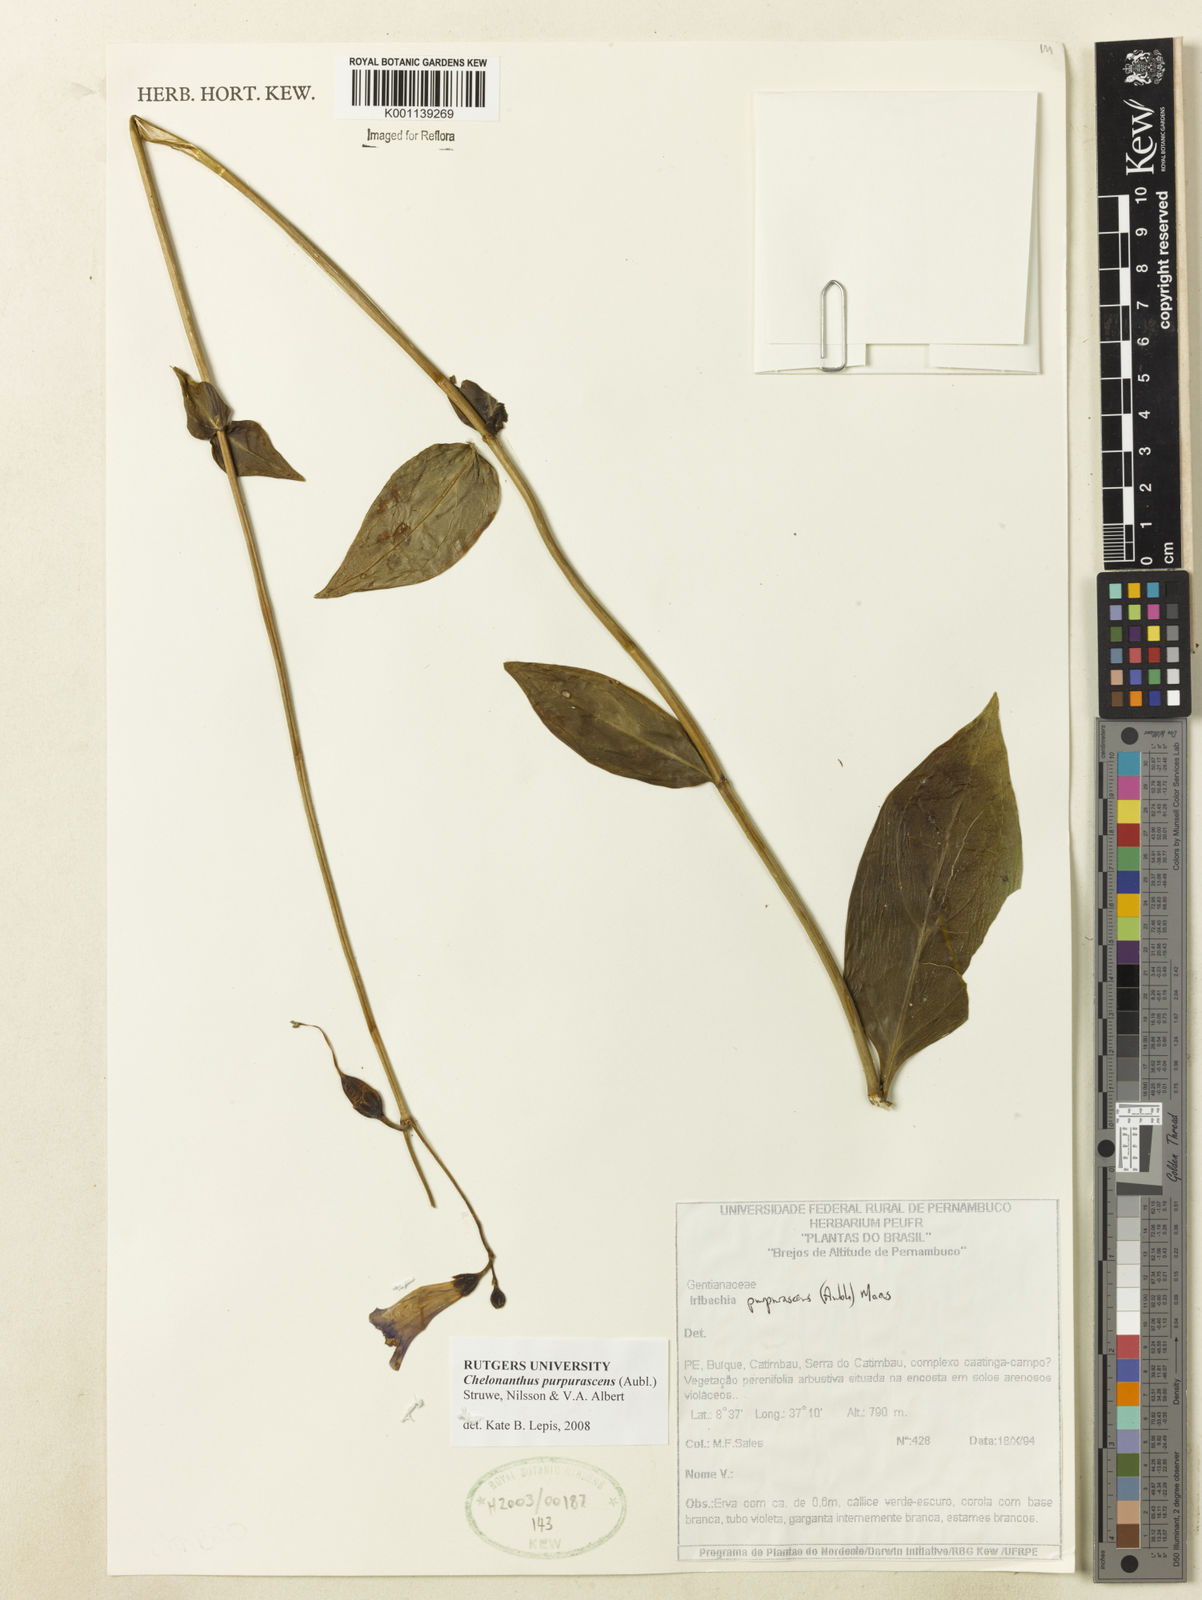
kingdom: Plantae
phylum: Tracheophyta
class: Magnoliopsida
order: Gentianales
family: Gentianaceae
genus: Chelonanthus
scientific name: Chelonanthus purpurascens
